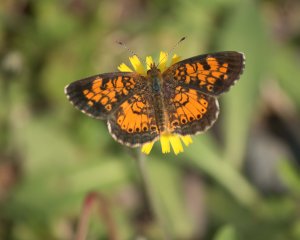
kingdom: Animalia
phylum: Arthropoda
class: Insecta
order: Lepidoptera
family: Nymphalidae
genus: Phyciodes
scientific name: Phyciodes tharos
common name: Northern Crescent
